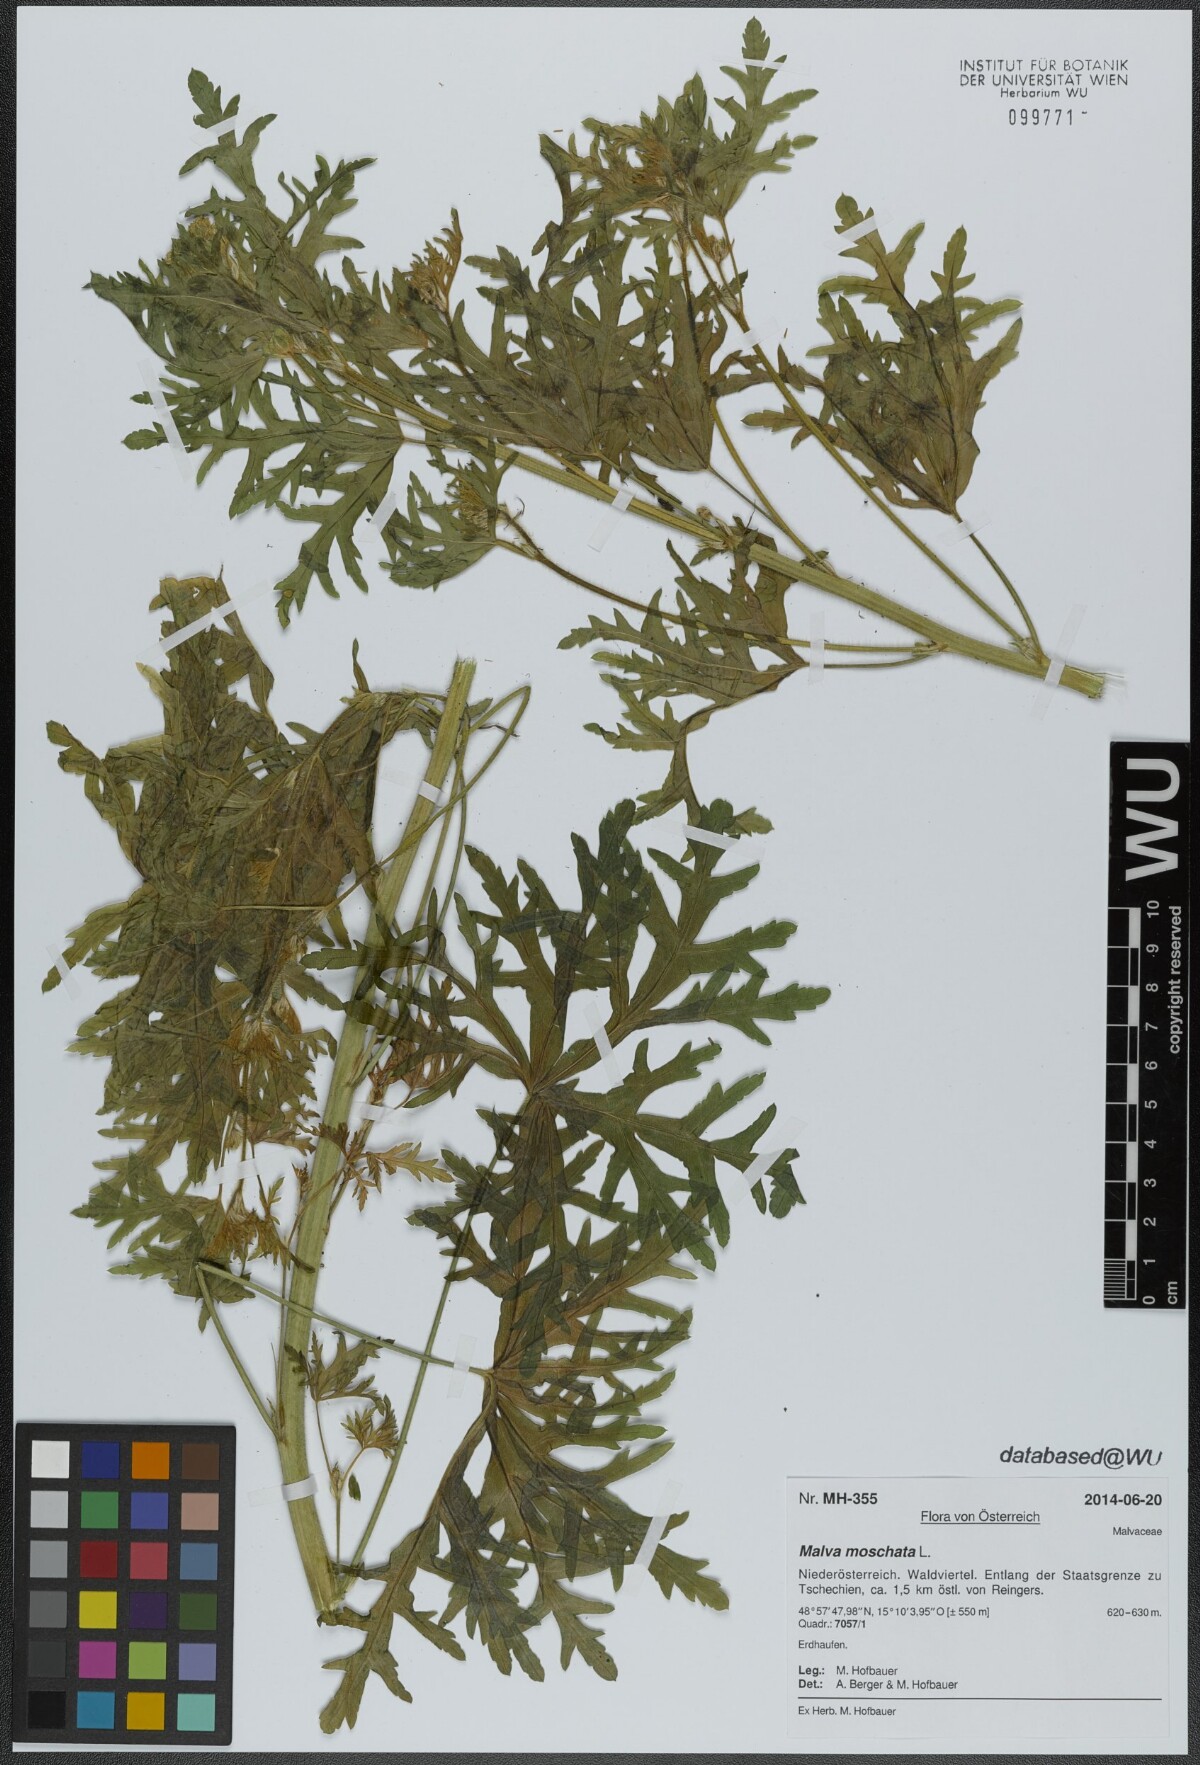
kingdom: Plantae
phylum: Tracheophyta
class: Magnoliopsida
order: Malvales
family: Malvaceae
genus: Malva
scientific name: Malva moschata
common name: Musk mallow
